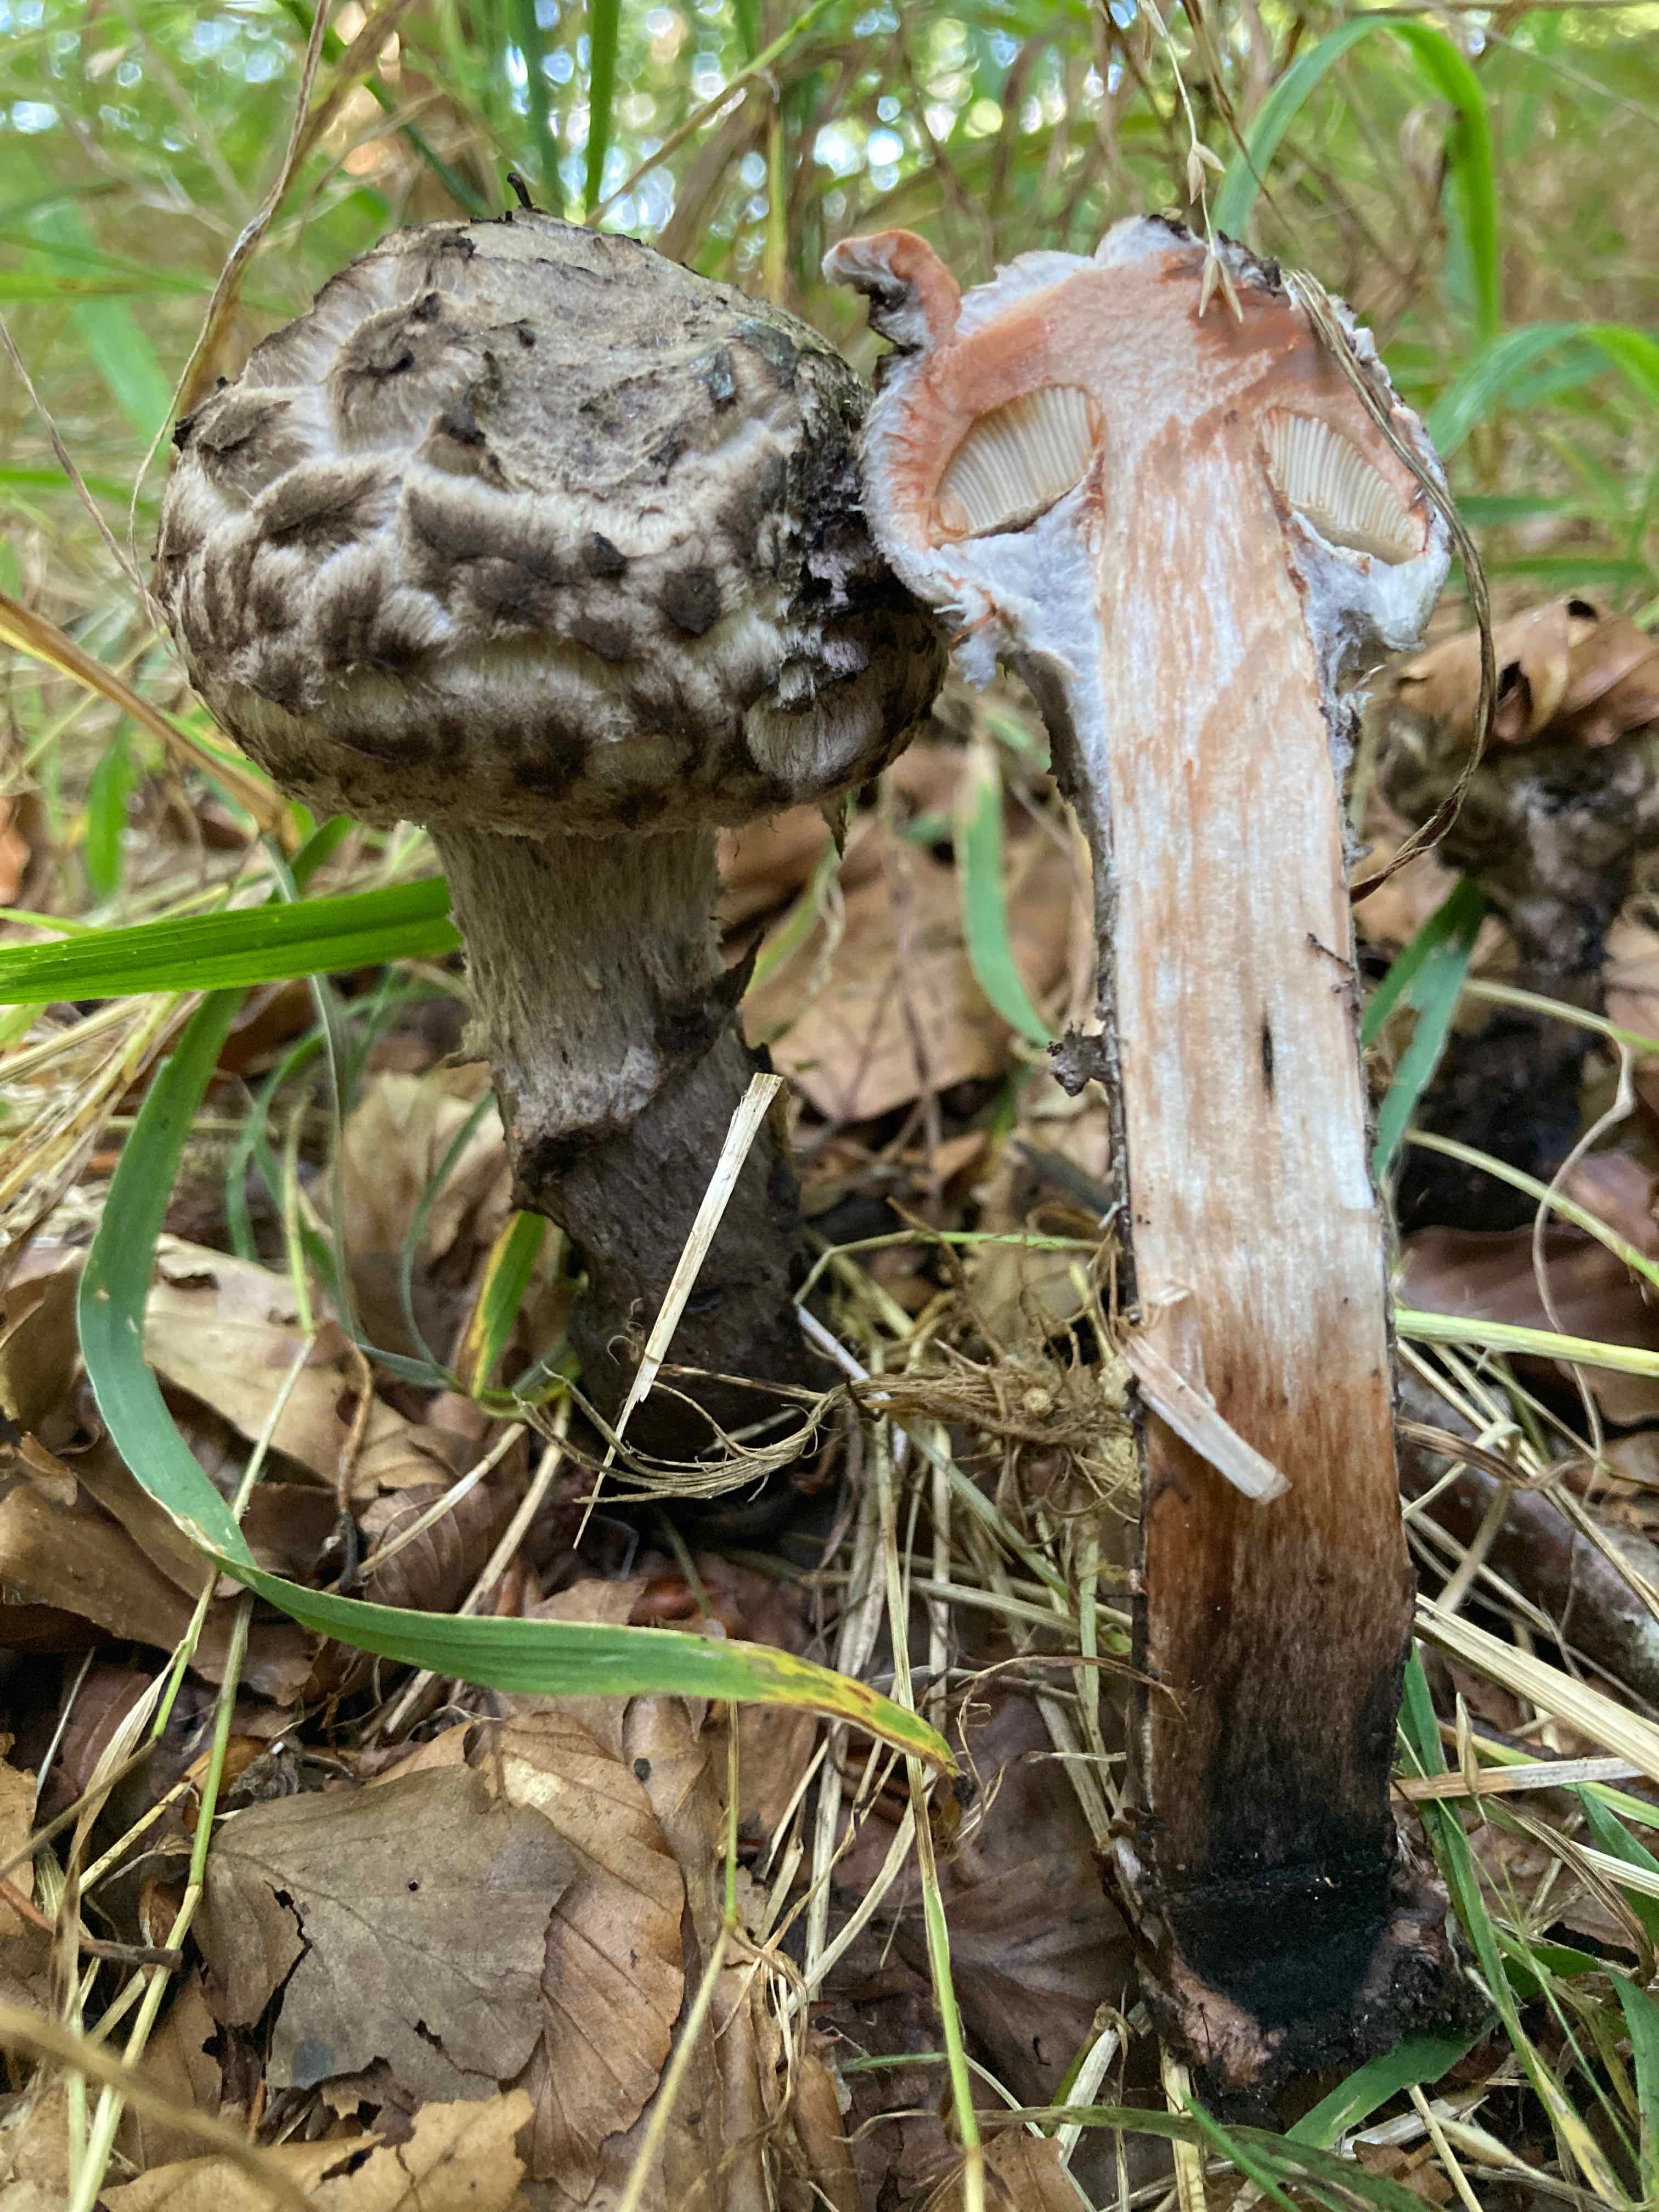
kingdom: Fungi
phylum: Basidiomycota
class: Agaricomycetes
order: Boletales
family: Boletaceae
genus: Strobilomyces
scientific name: Strobilomyces strobilaceus
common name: koglerørhat
